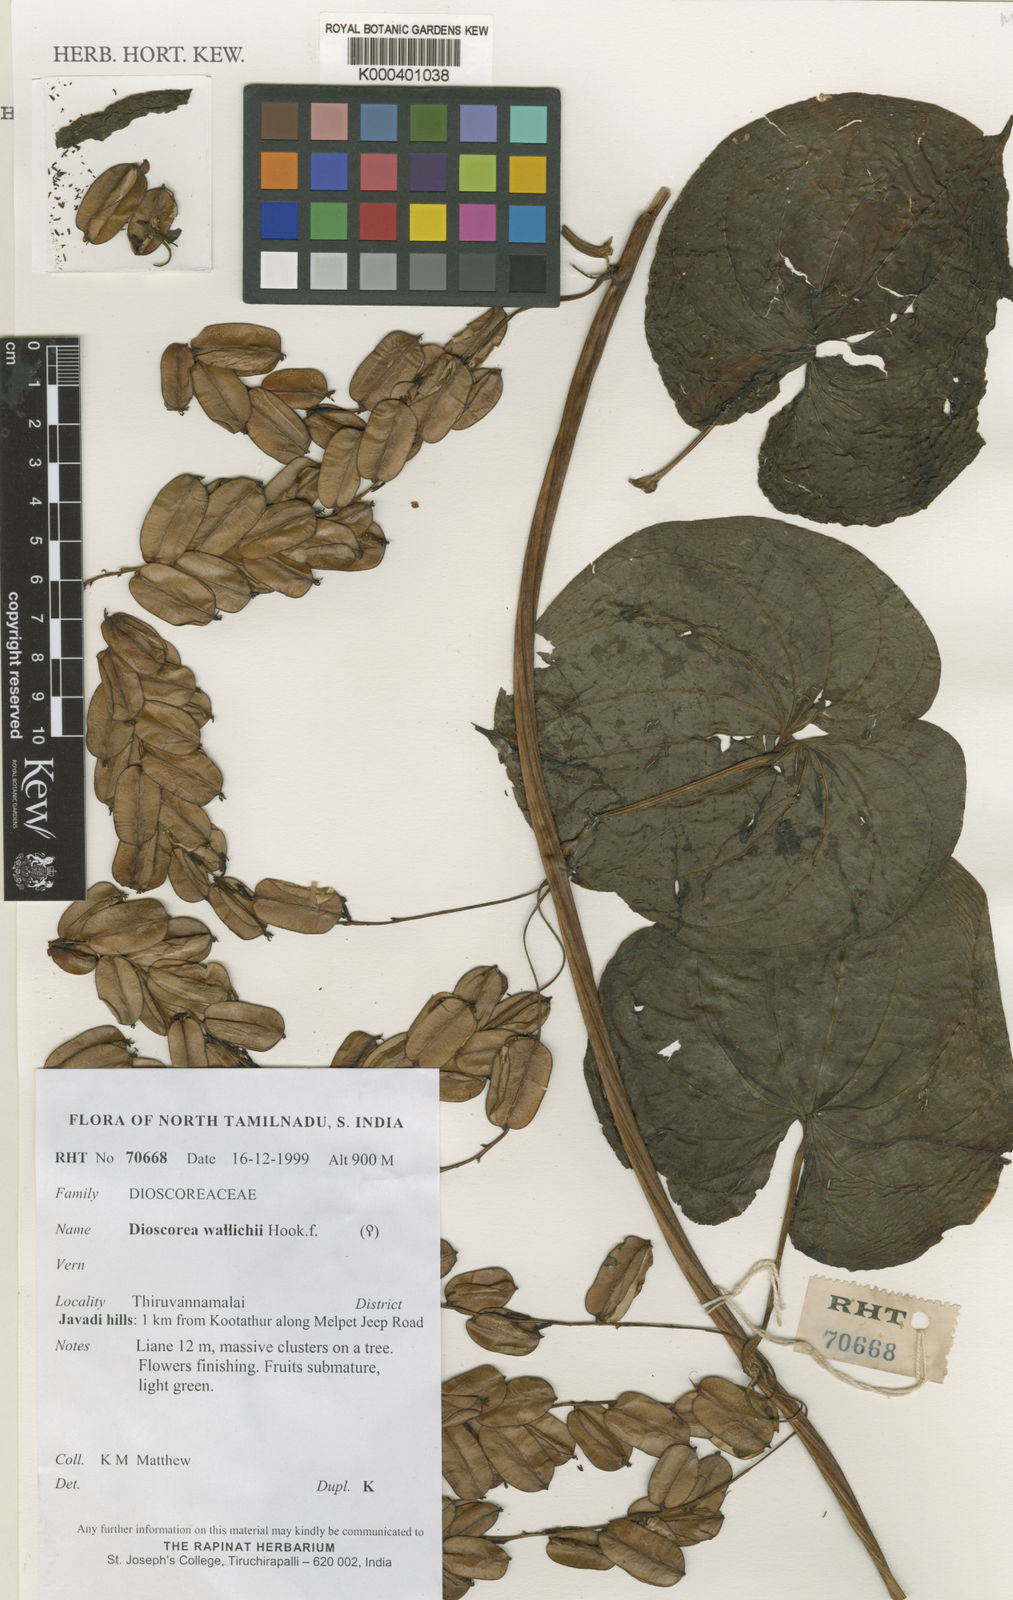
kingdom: Plantae
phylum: Tracheophyta
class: Liliopsida
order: Dioscoreales
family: Dioscoreaceae
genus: Dioscorea
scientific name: Dioscorea bulbifera
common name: Air yam
